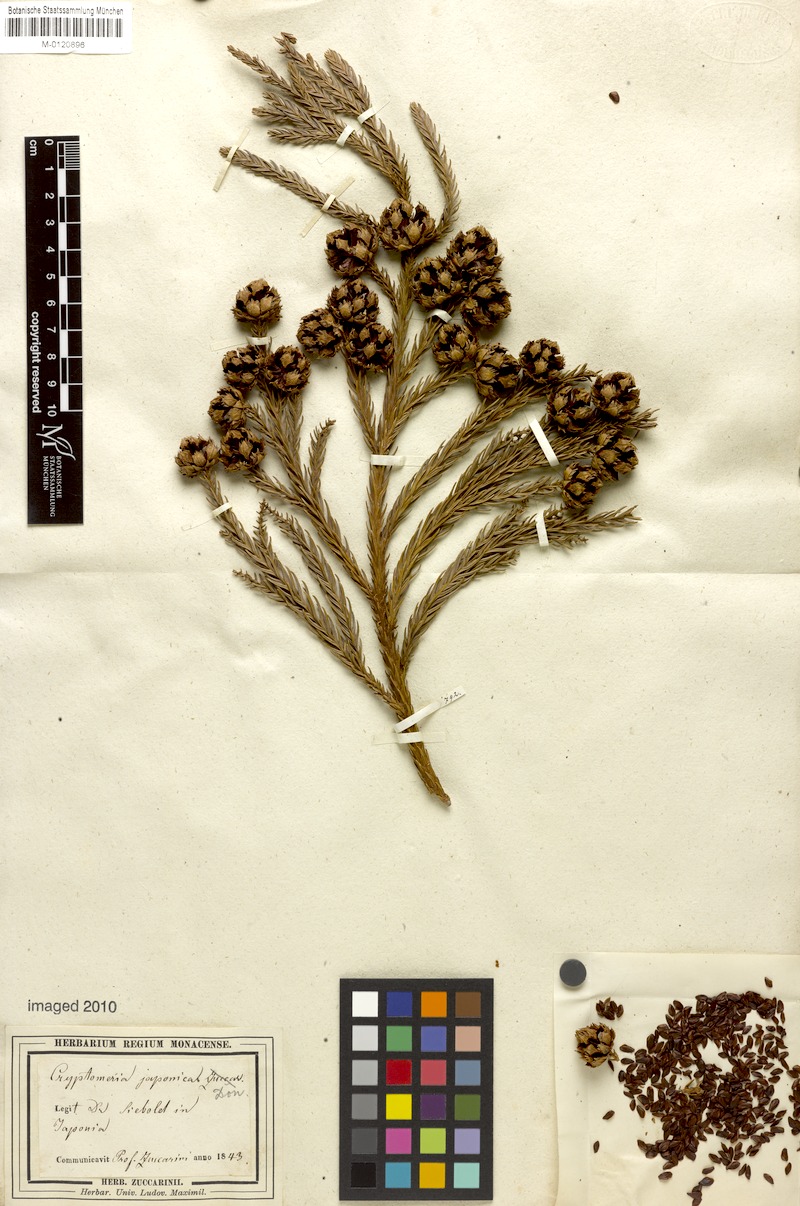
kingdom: Plantae
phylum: Tracheophyta
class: Pinopsida
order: Pinales
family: Cupressaceae
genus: Cryptomeria
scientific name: Cryptomeria japonica
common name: Japanese cedar
